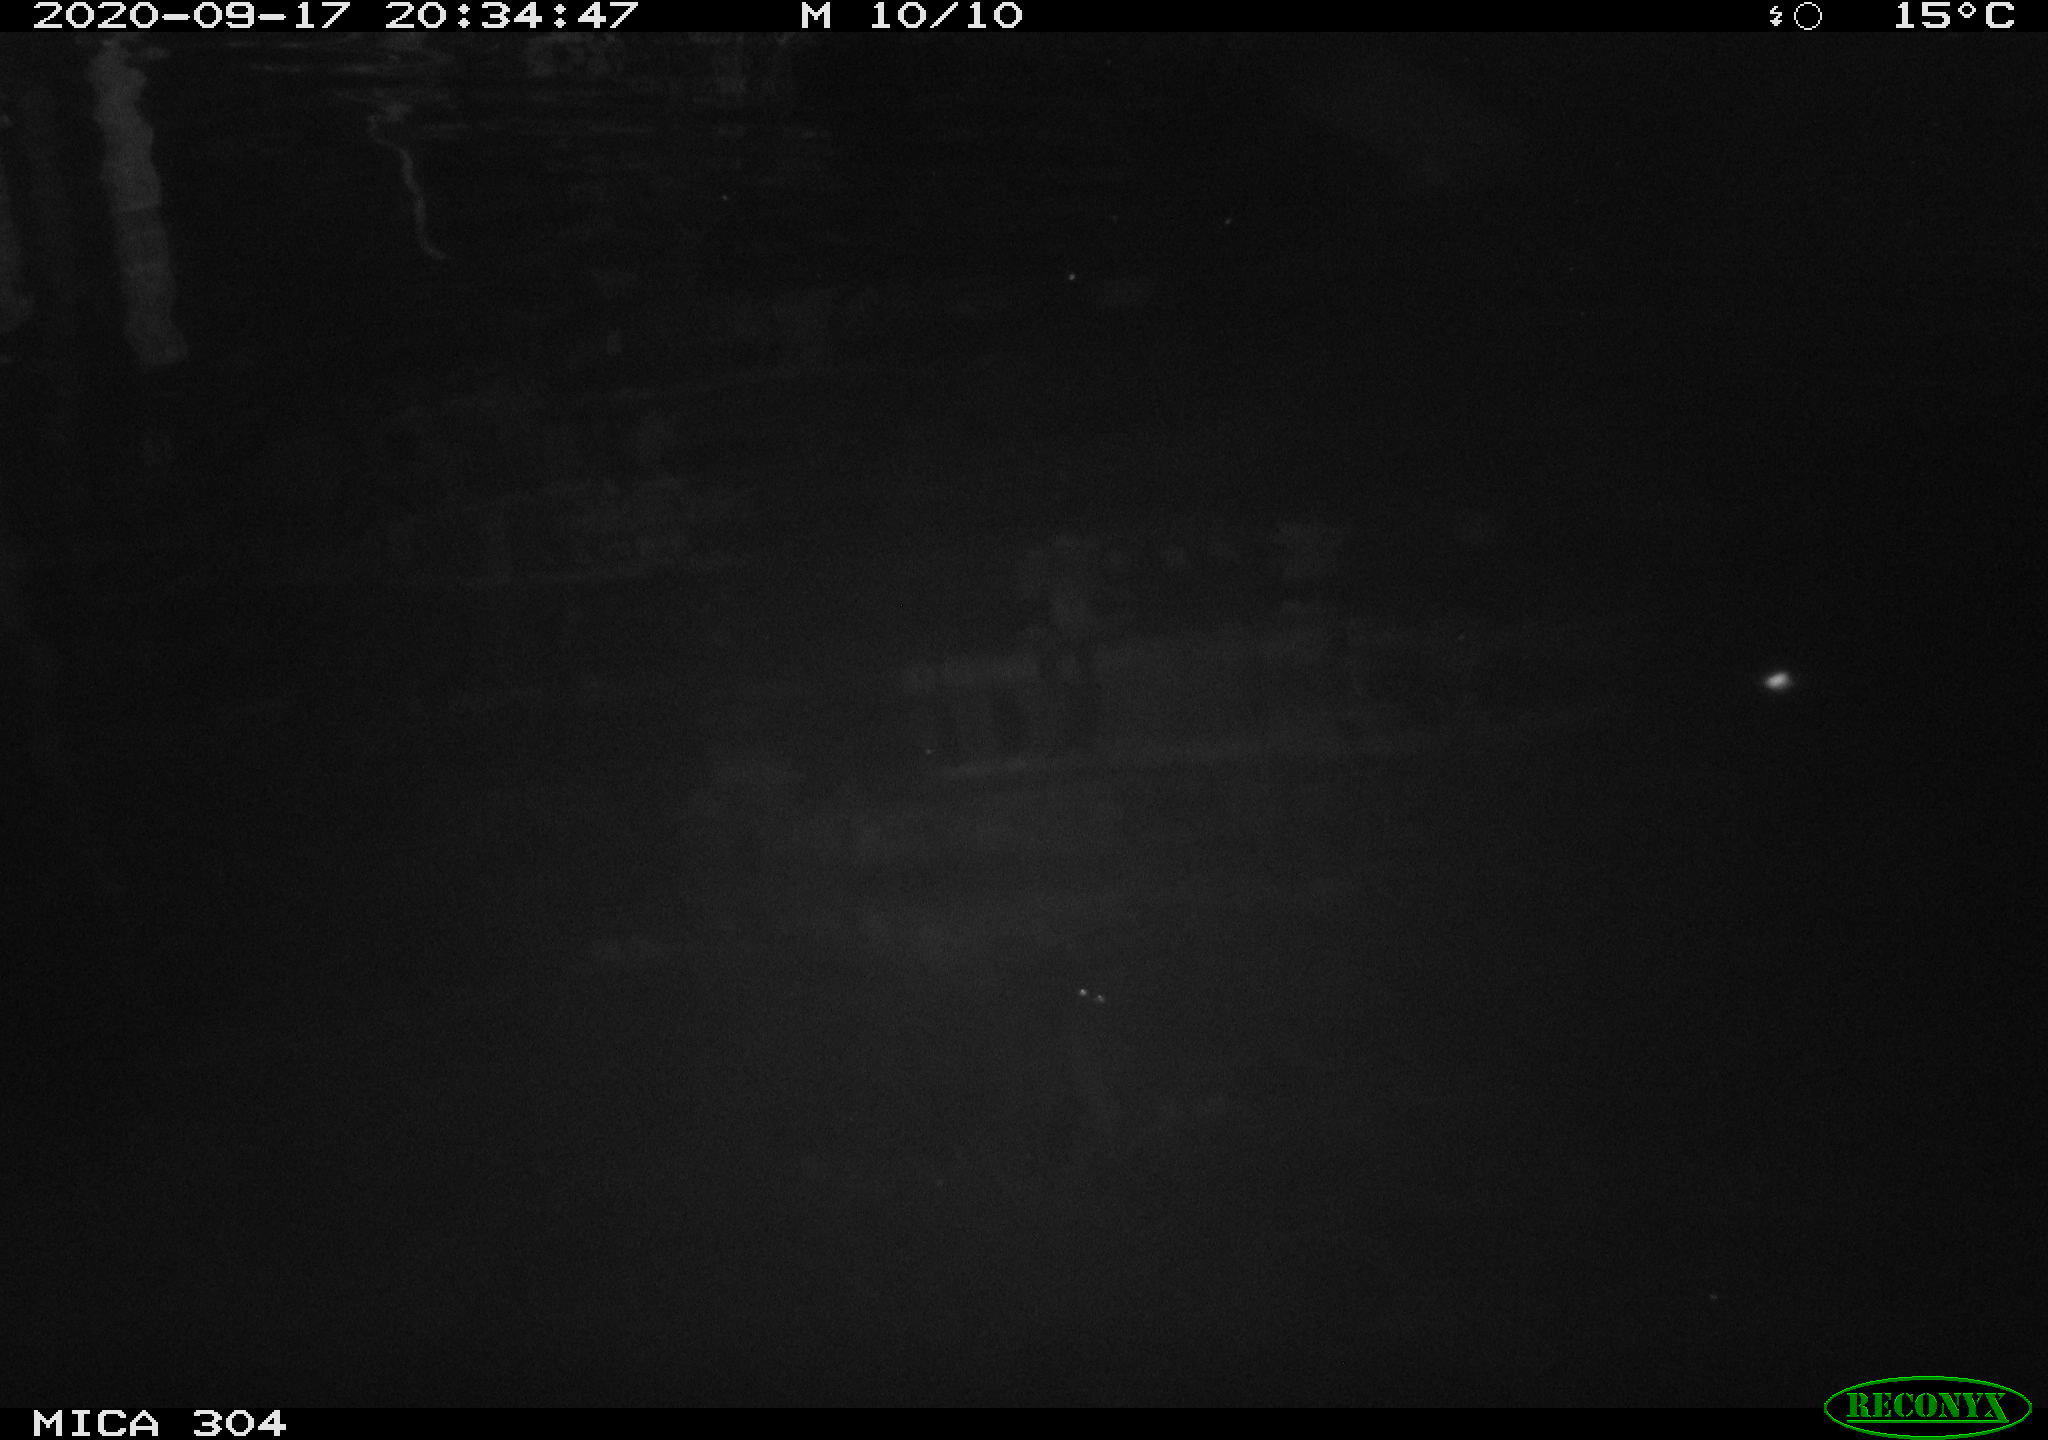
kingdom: Animalia
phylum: Chordata
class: Mammalia
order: Rodentia
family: Muridae
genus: Rattus
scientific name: Rattus norvegicus
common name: Brown rat
